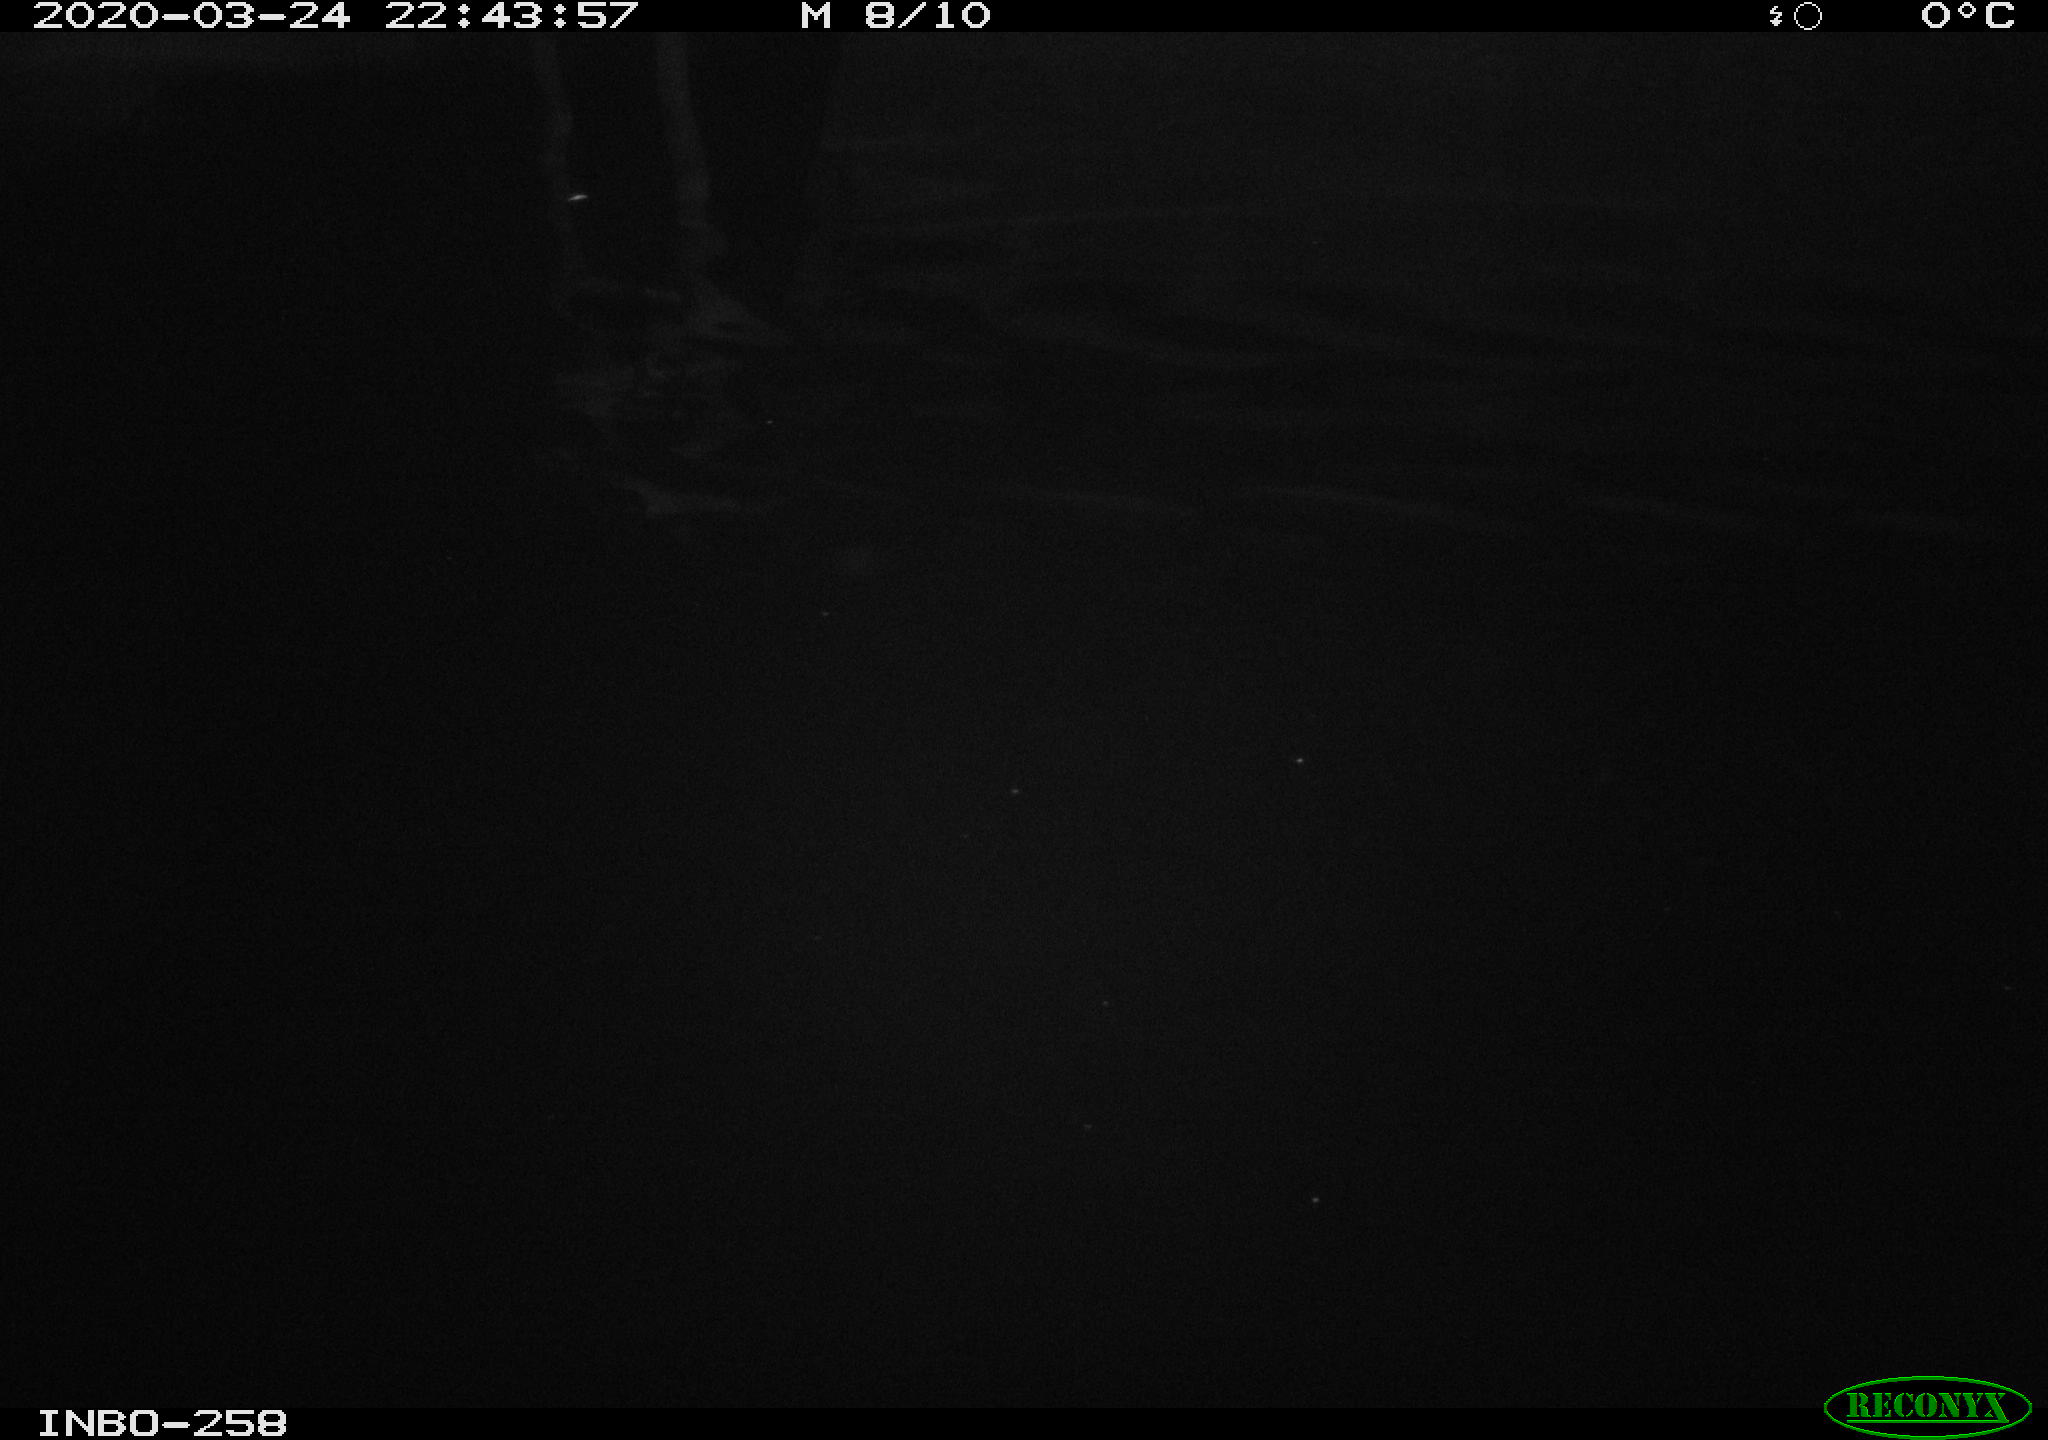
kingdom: Animalia
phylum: Chordata
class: Aves
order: Anseriformes
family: Anatidae
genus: Anas
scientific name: Anas platyrhynchos
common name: Mallard
